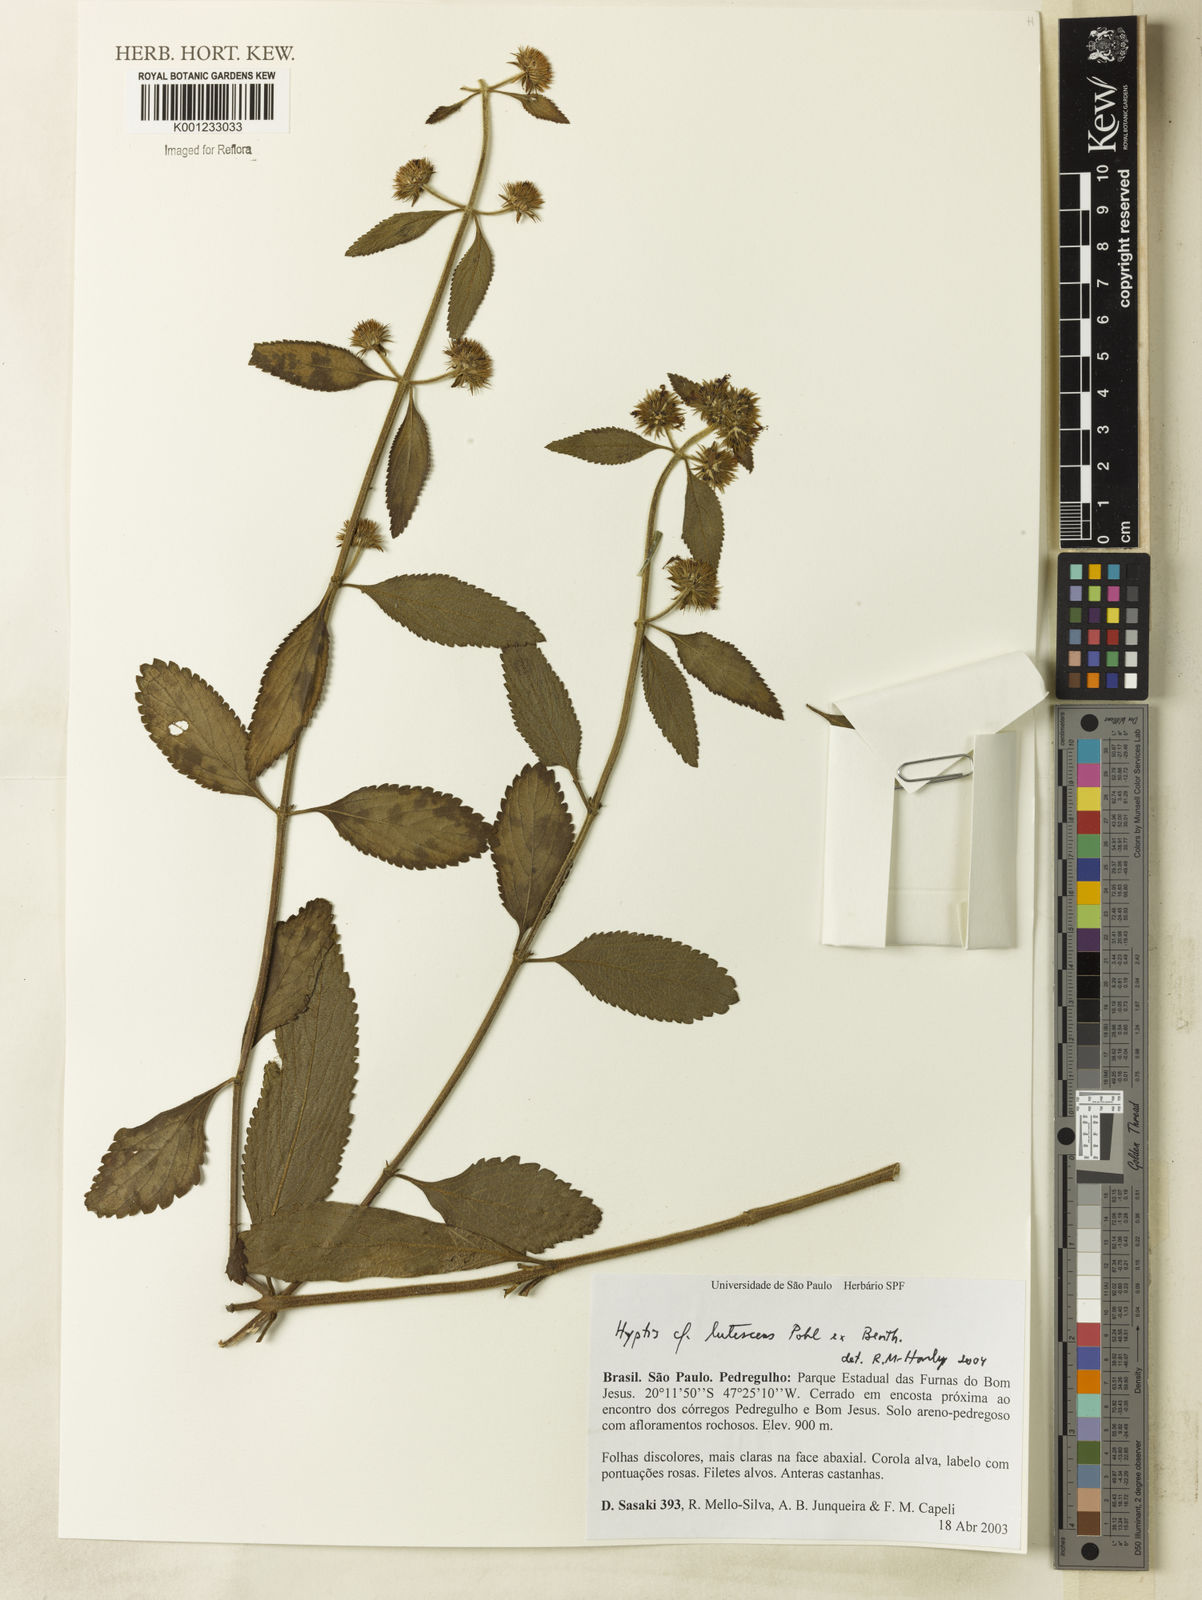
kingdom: Plantae
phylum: Tracheophyta
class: Magnoliopsida
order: Lamiales
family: Lamiaceae
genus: Hyptis
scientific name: Hyptis lutescens
